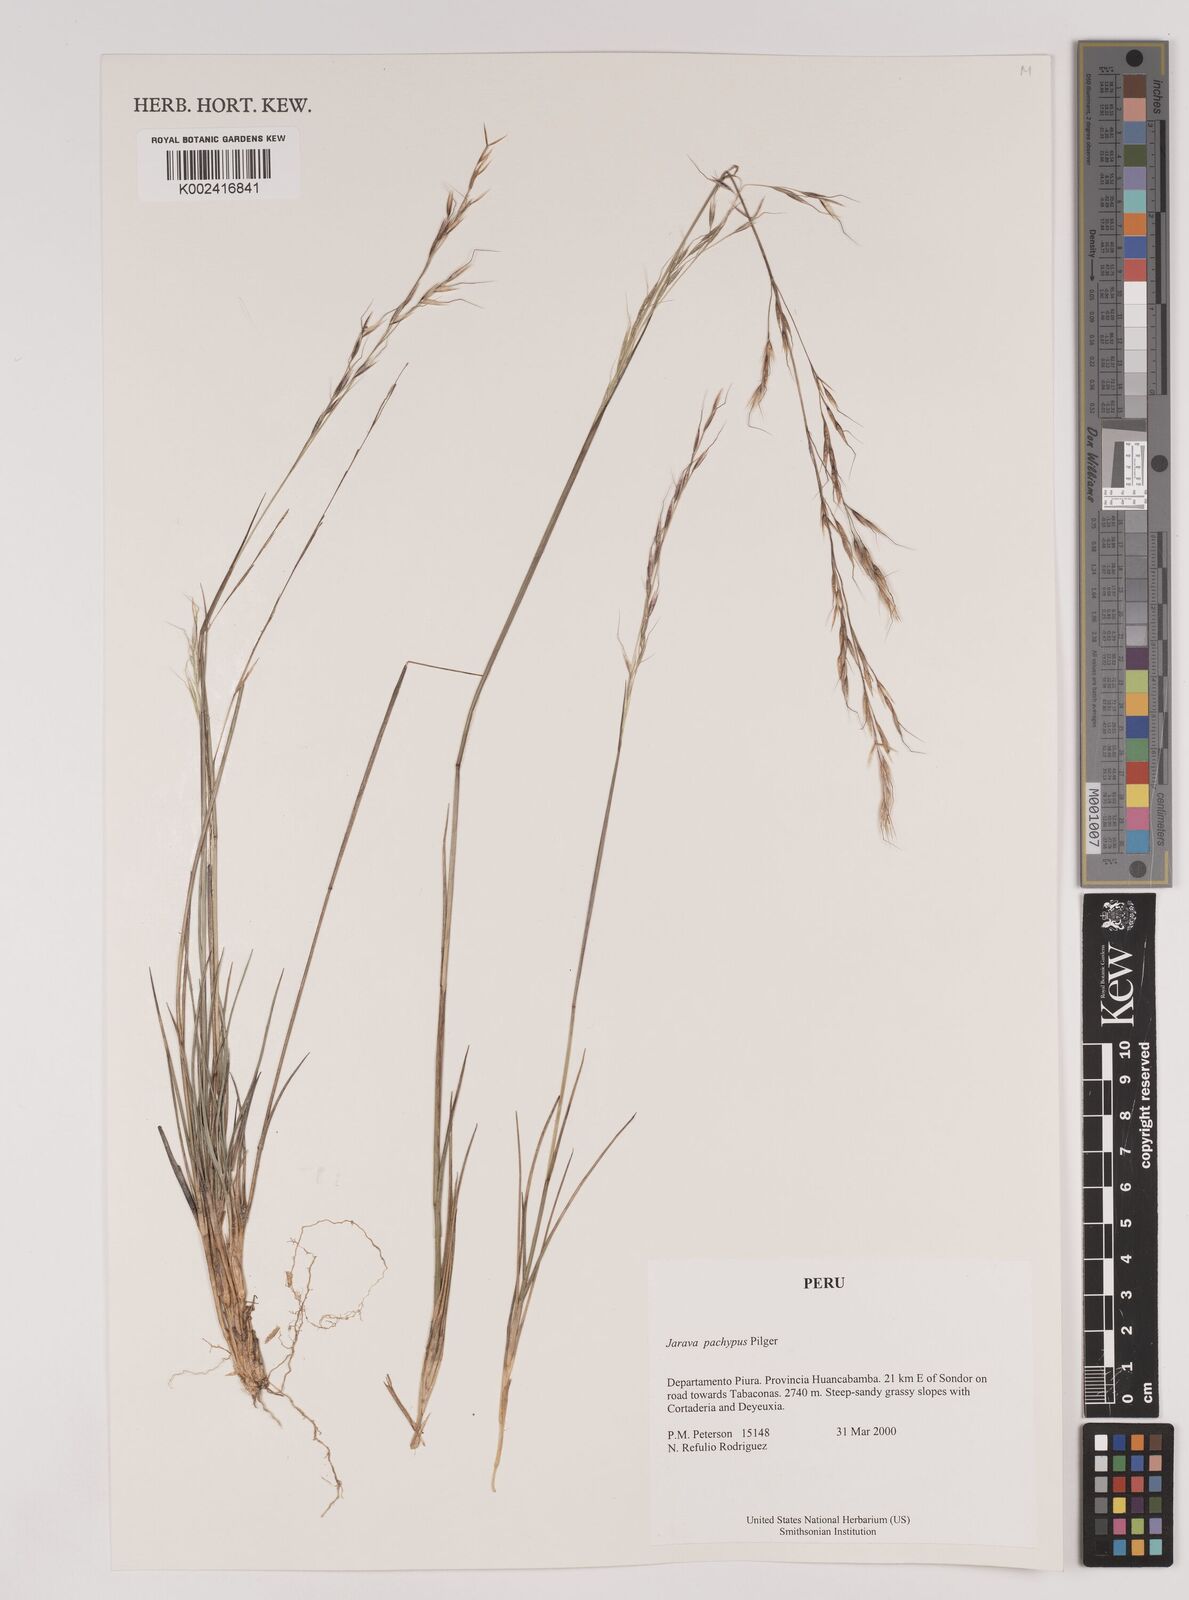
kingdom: Plantae
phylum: Tracheophyta
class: Liliopsida
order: Poales
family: Poaceae
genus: Stipa
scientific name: Stipa
